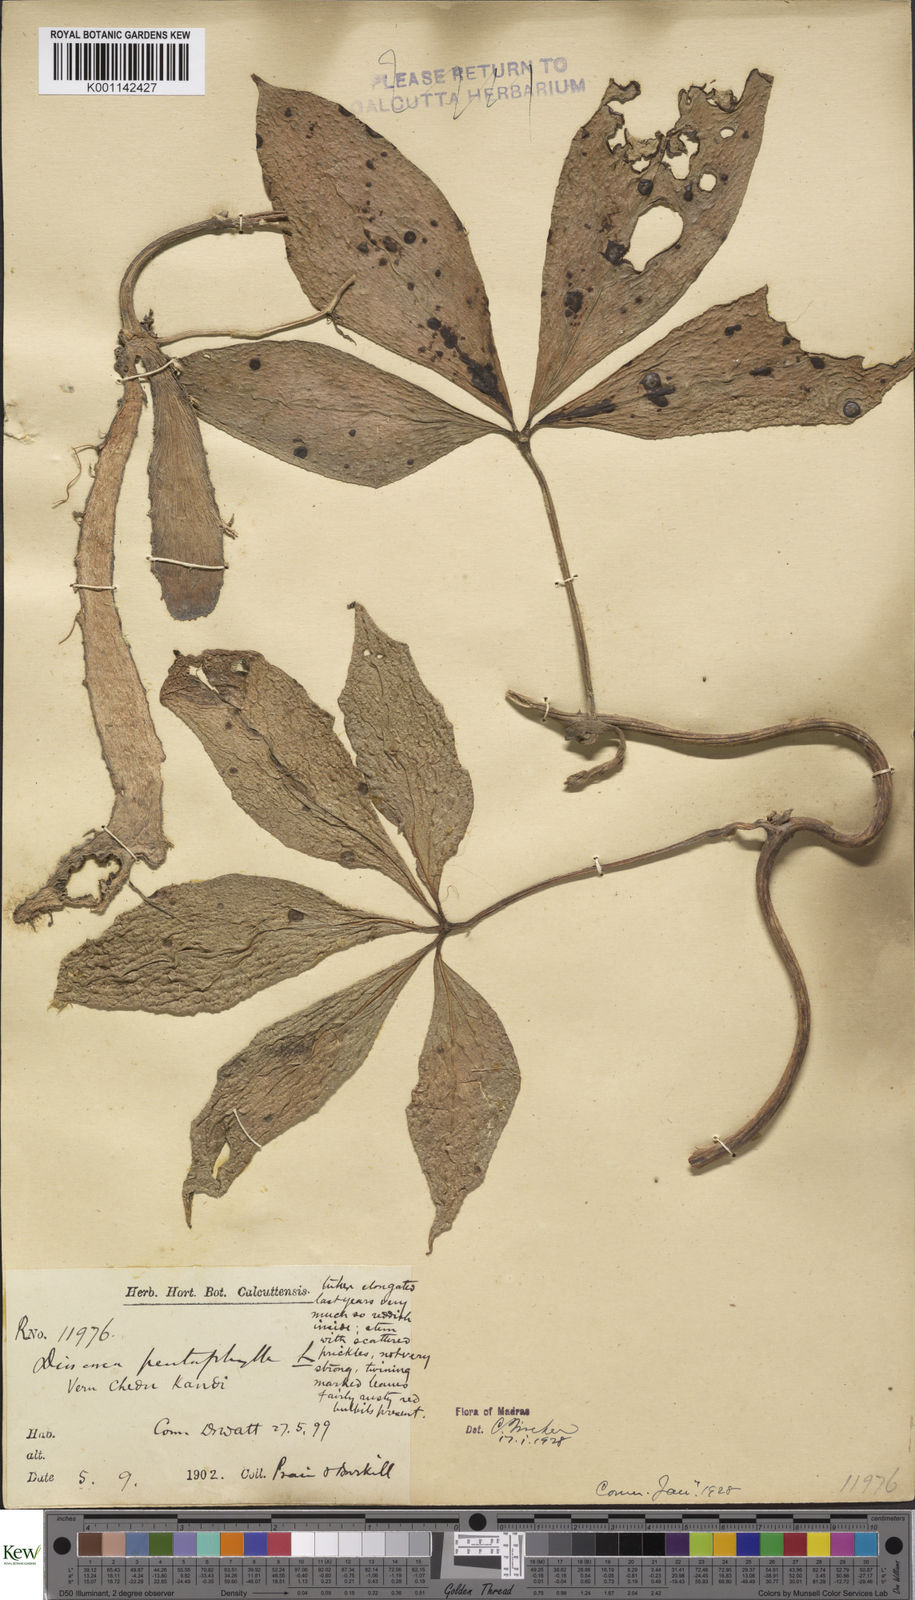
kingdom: Plantae
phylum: Tracheophyta
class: Liliopsida
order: Dioscoreales
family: Dioscoreaceae
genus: Dioscorea
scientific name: Dioscorea pentaphylla
